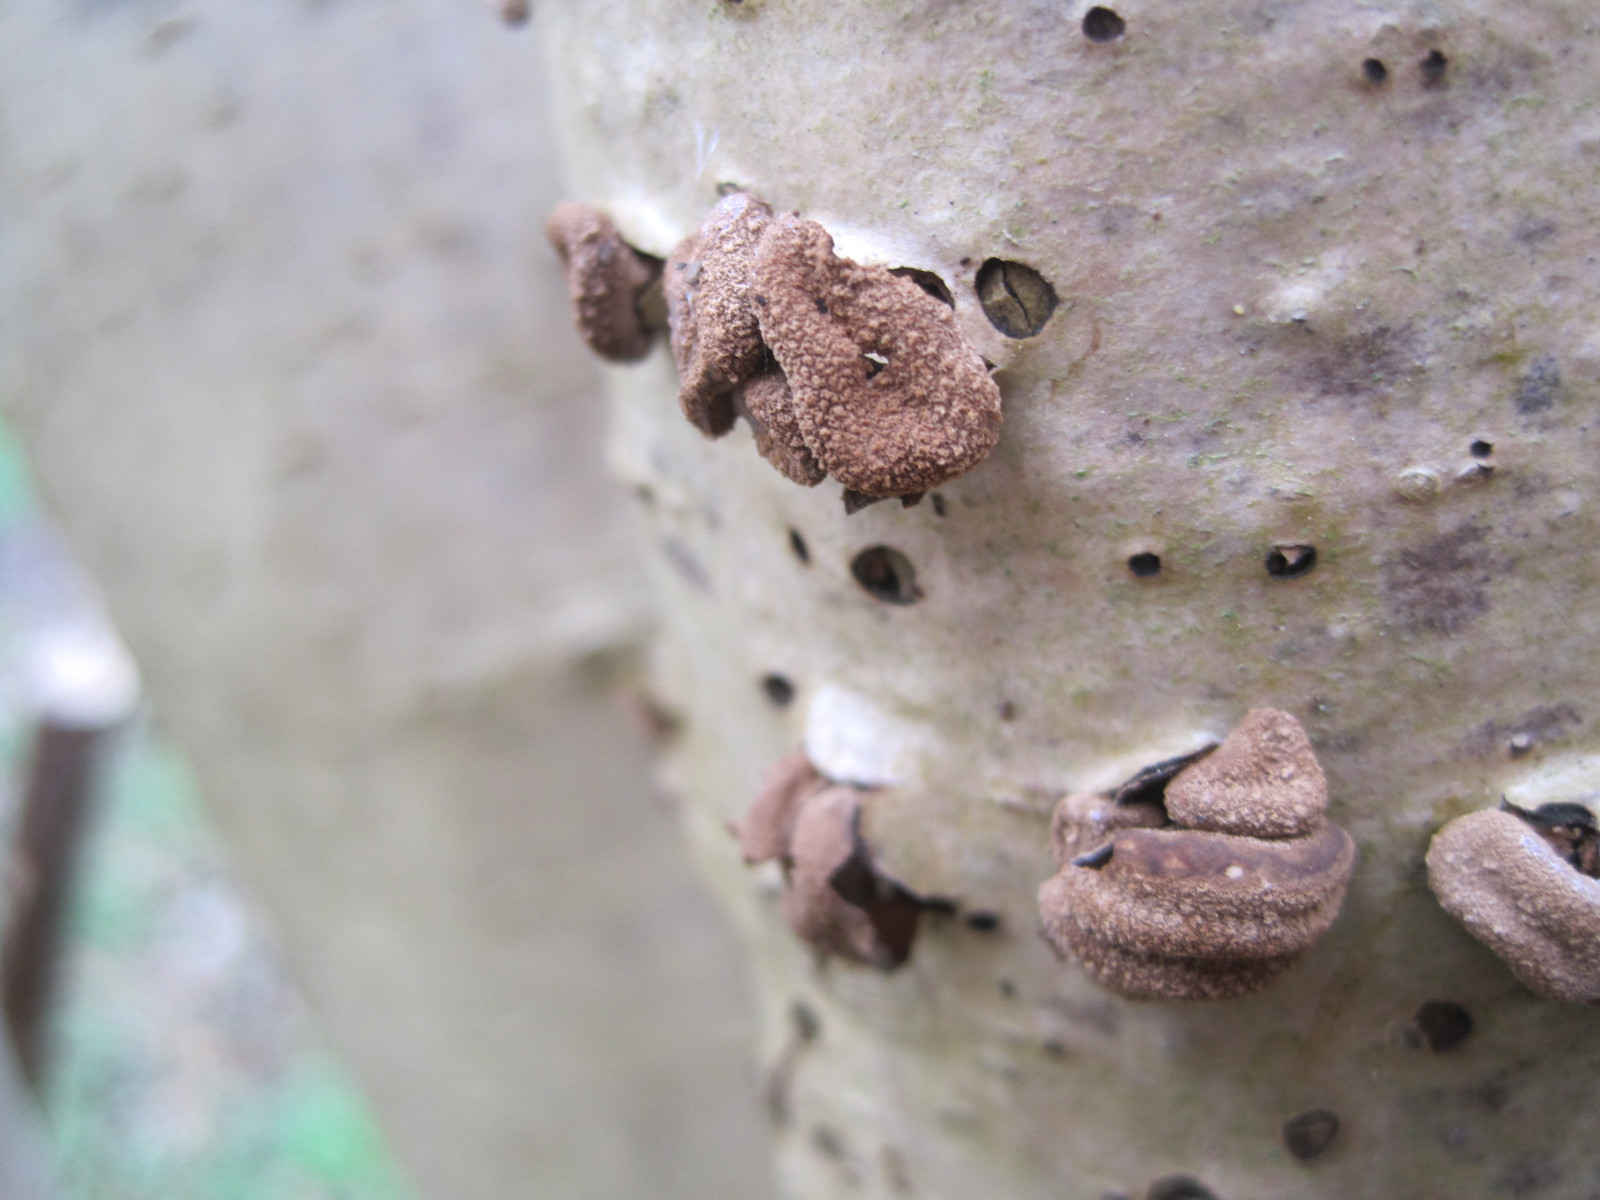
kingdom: Fungi
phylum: Ascomycota
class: Leotiomycetes
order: Helotiales
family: Cenangiaceae
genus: Encoelia
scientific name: Encoelia furfuracea
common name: hassel-læderskive
